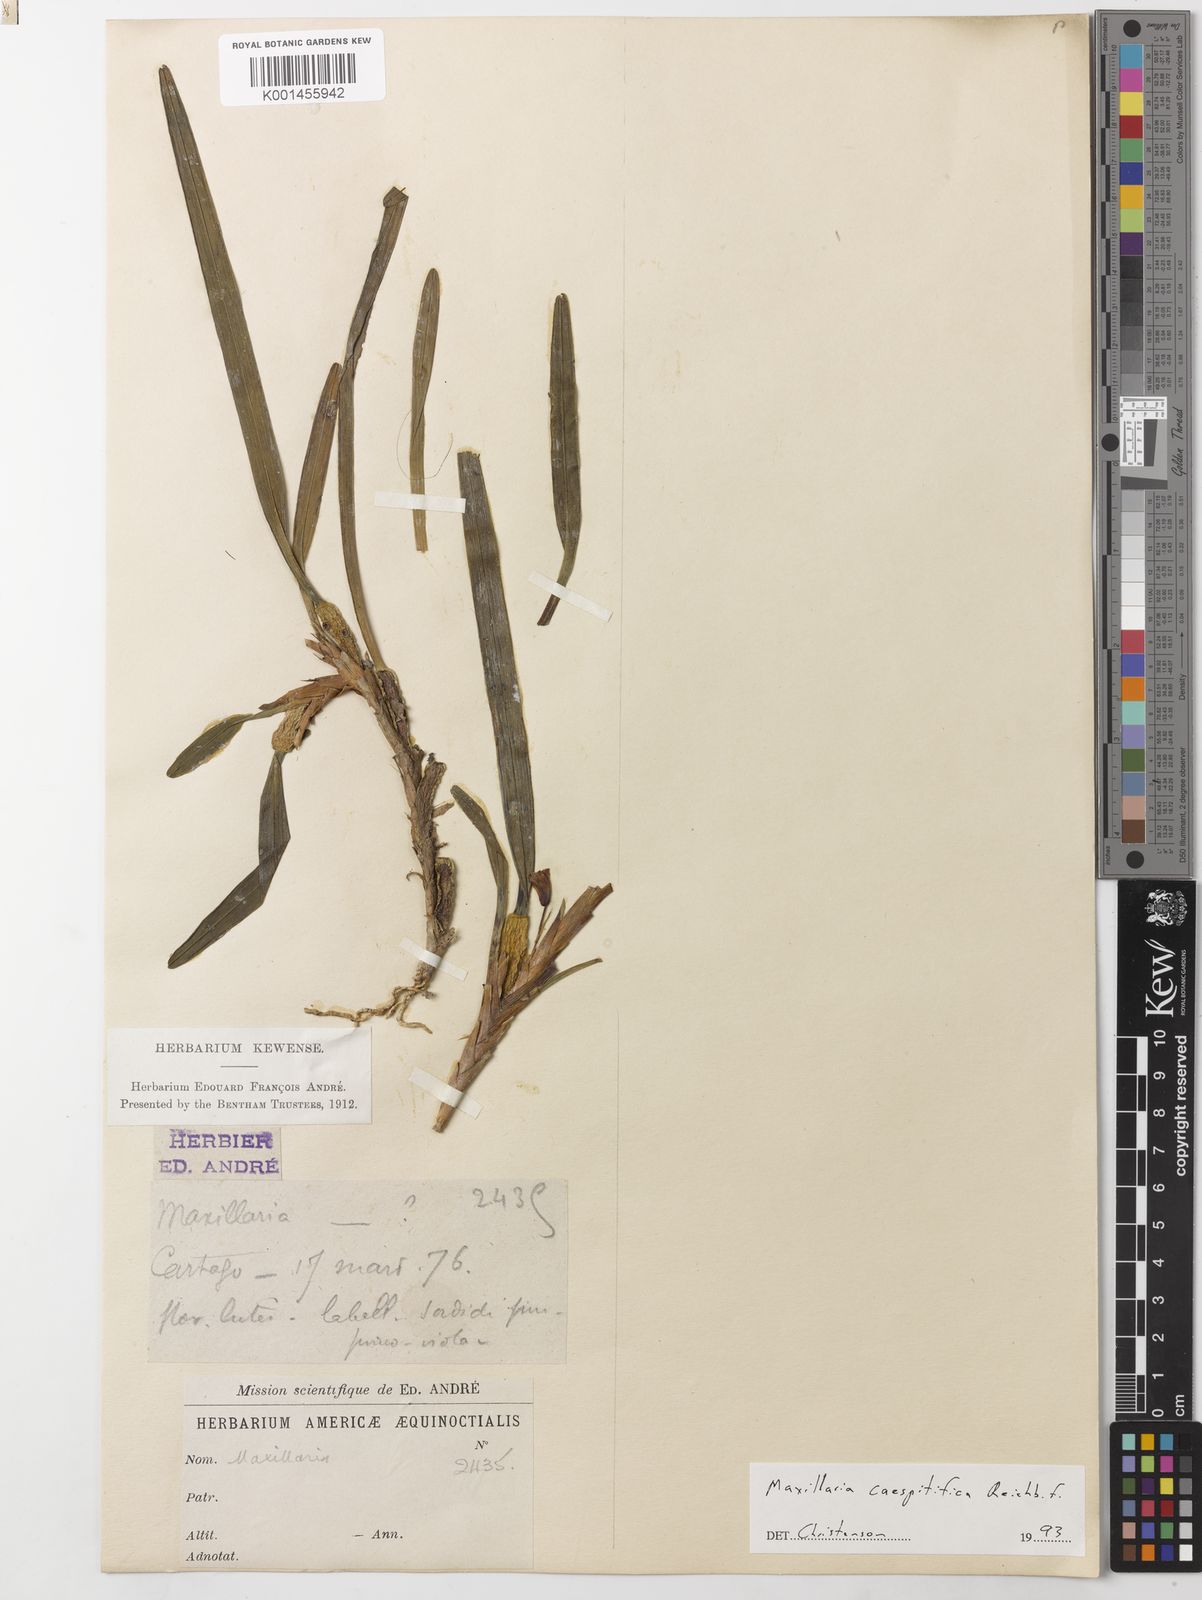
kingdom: Plantae
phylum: Tracheophyta
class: Liliopsida
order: Asparagales
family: Orchidaceae
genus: Maxillaria
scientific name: Maxillaria caespitifica
